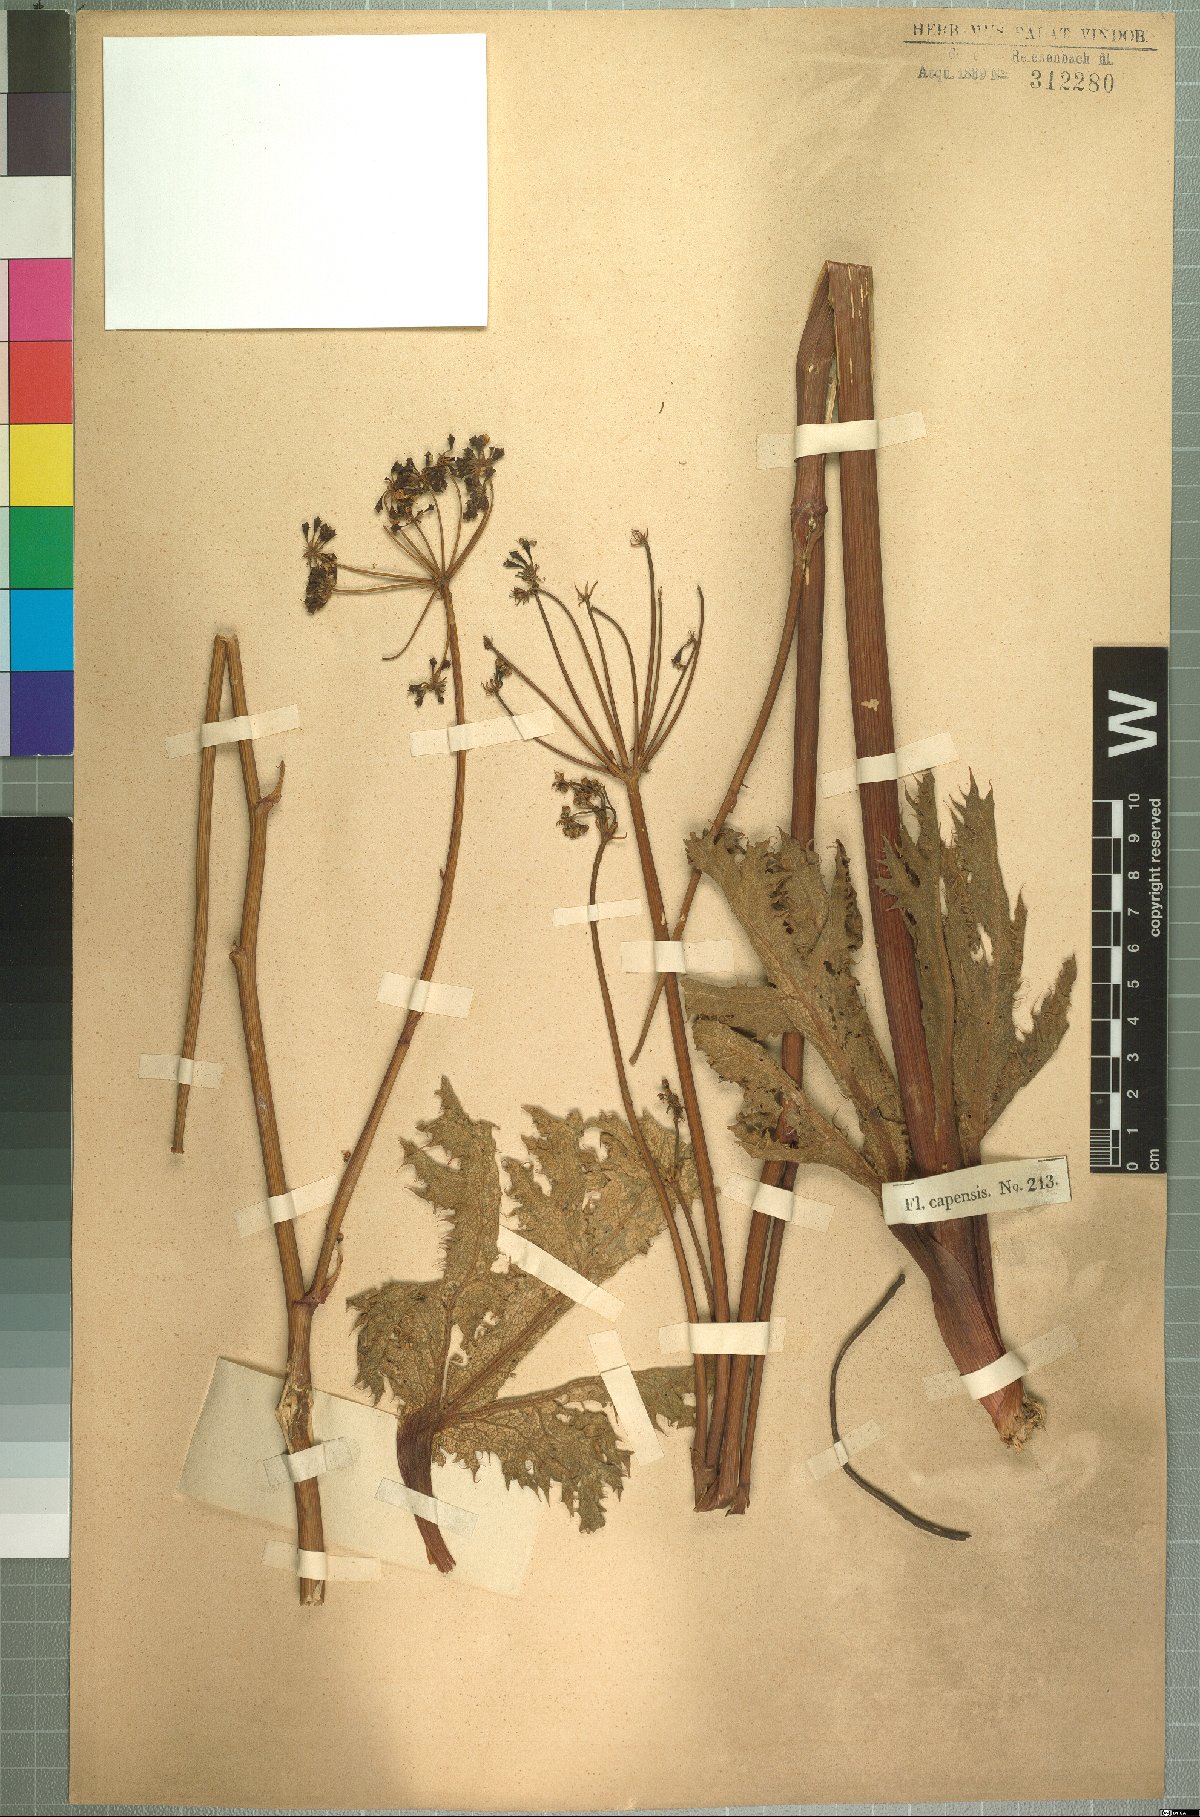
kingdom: Plantae
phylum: Tracheophyta
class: Magnoliopsida
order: Apiales
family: Apiaceae
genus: Lichtensteinia
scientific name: Lichtensteinia lacera
